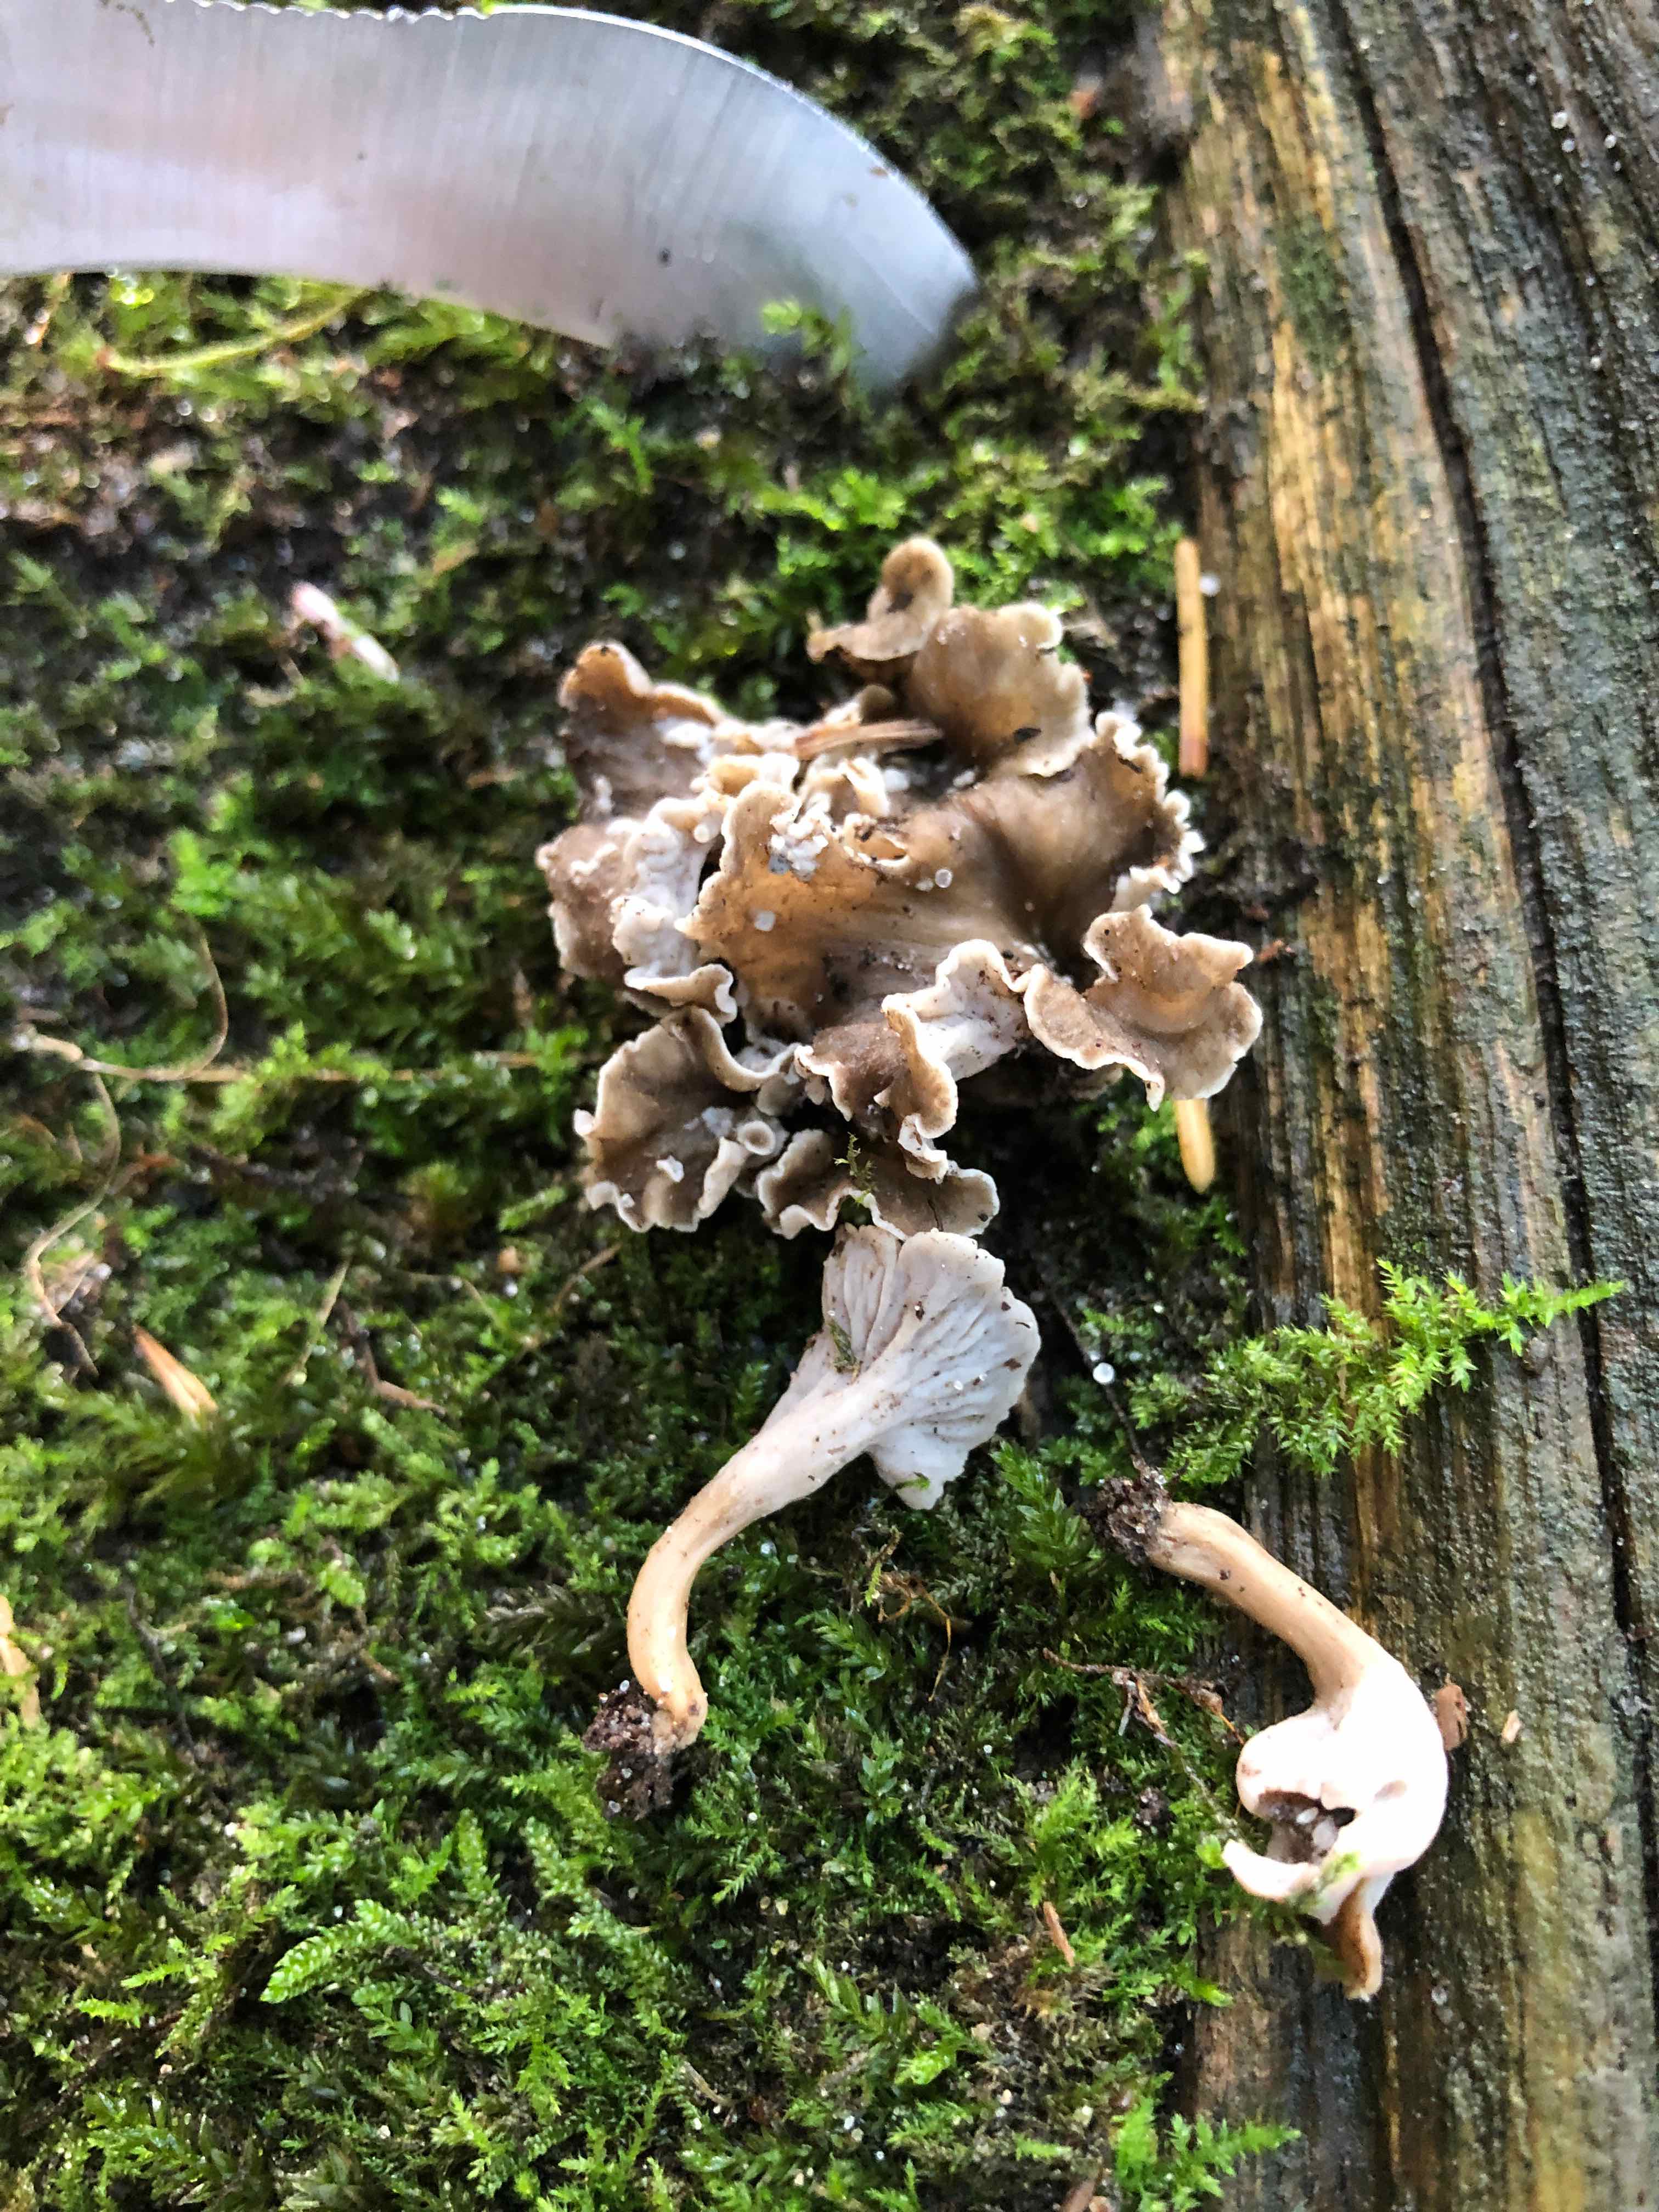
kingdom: Fungi
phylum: Basidiomycota
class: Agaricomycetes
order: Cantharellales
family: Hydnaceae
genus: Craterellus
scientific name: Craterellus undulatus
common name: liden kantarel
